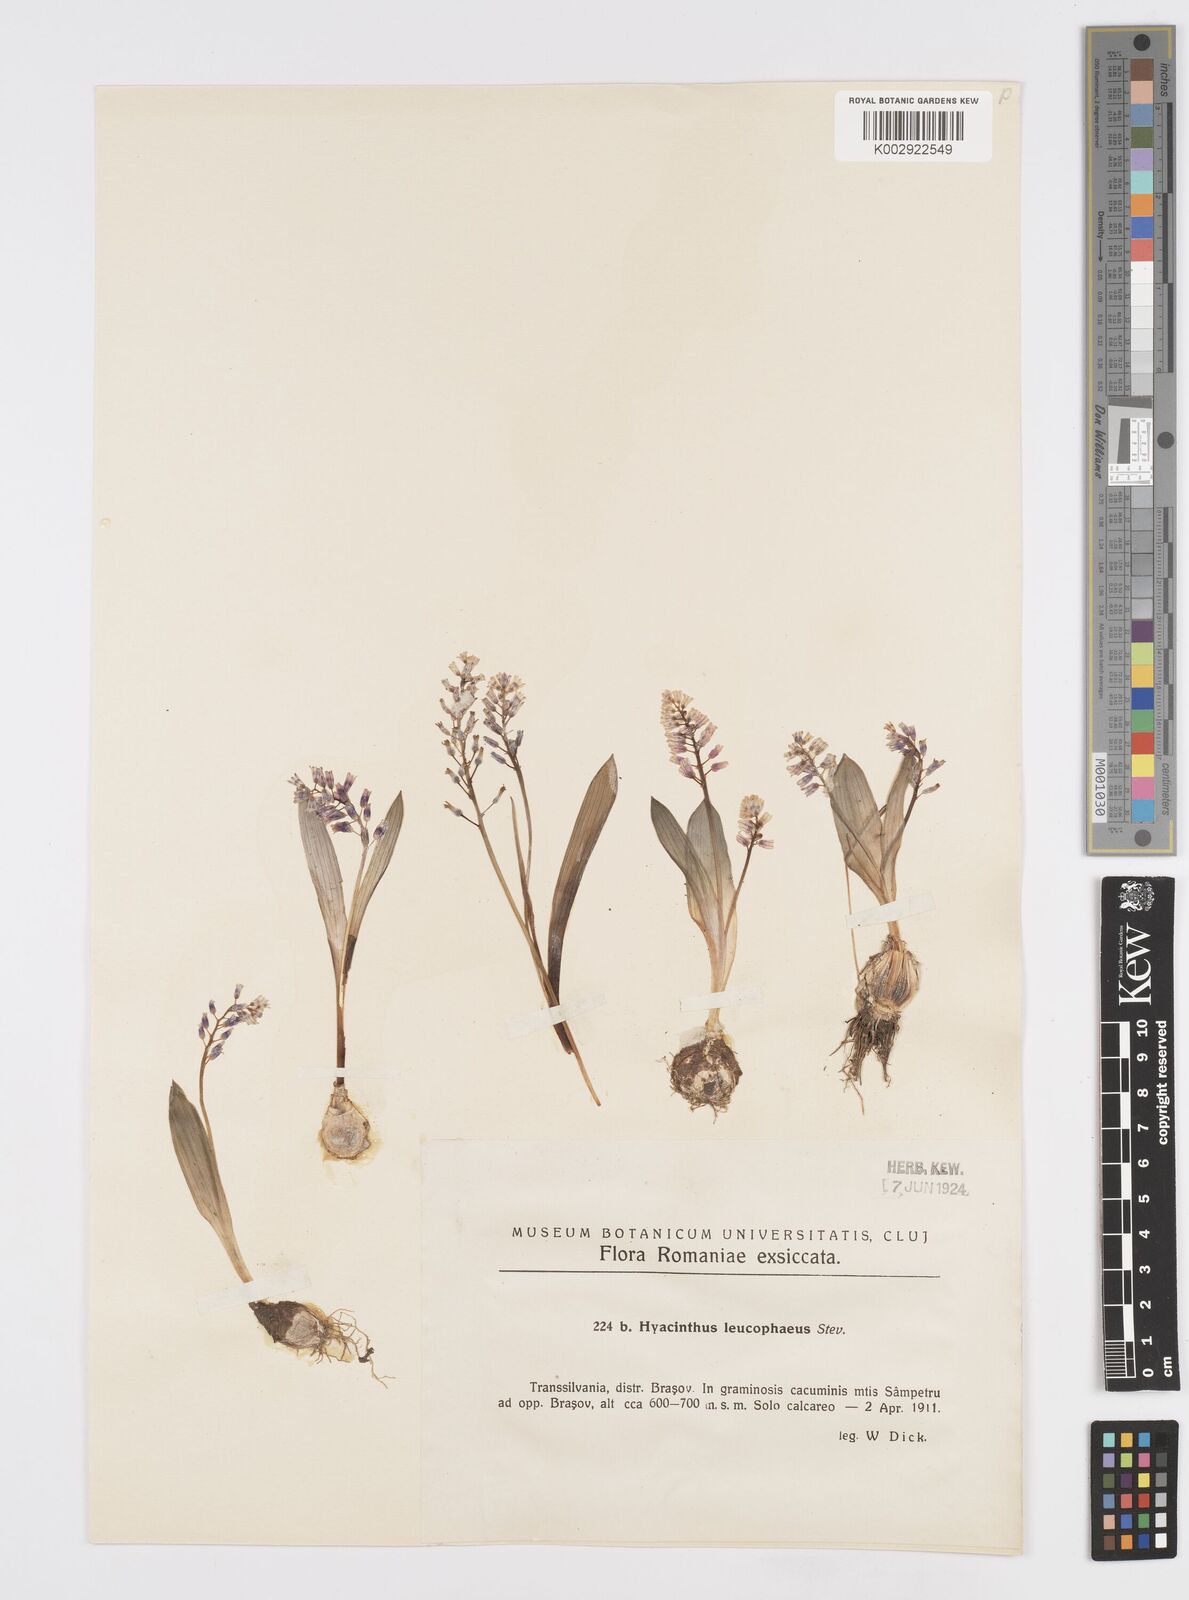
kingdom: Plantae
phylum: Tracheophyta
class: Liliopsida
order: Asparagales
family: Asparagaceae
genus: Hyacinthella
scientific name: Hyacinthella leucophaea
